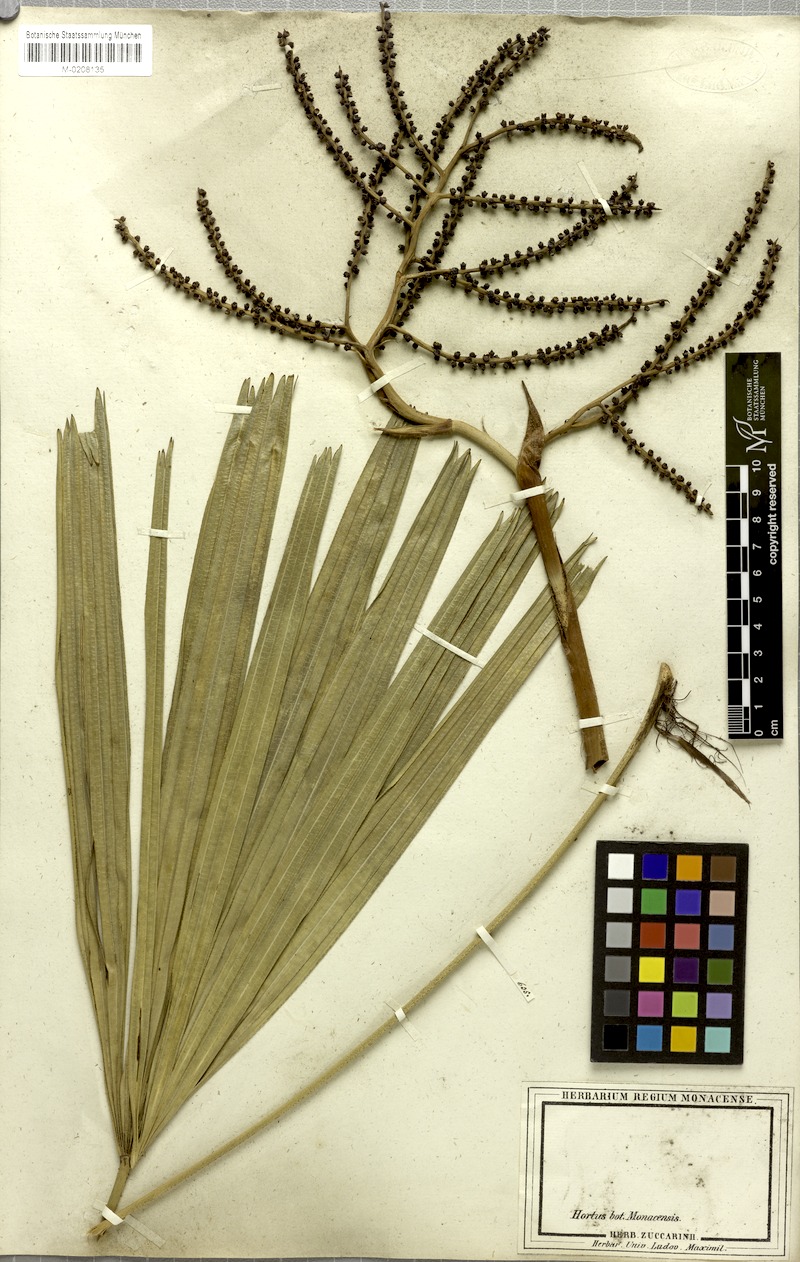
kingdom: Plantae
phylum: Tracheophyta
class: Liliopsida
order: Arecales
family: Arecaceae
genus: Rhapis
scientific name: Rhapis excelsa
